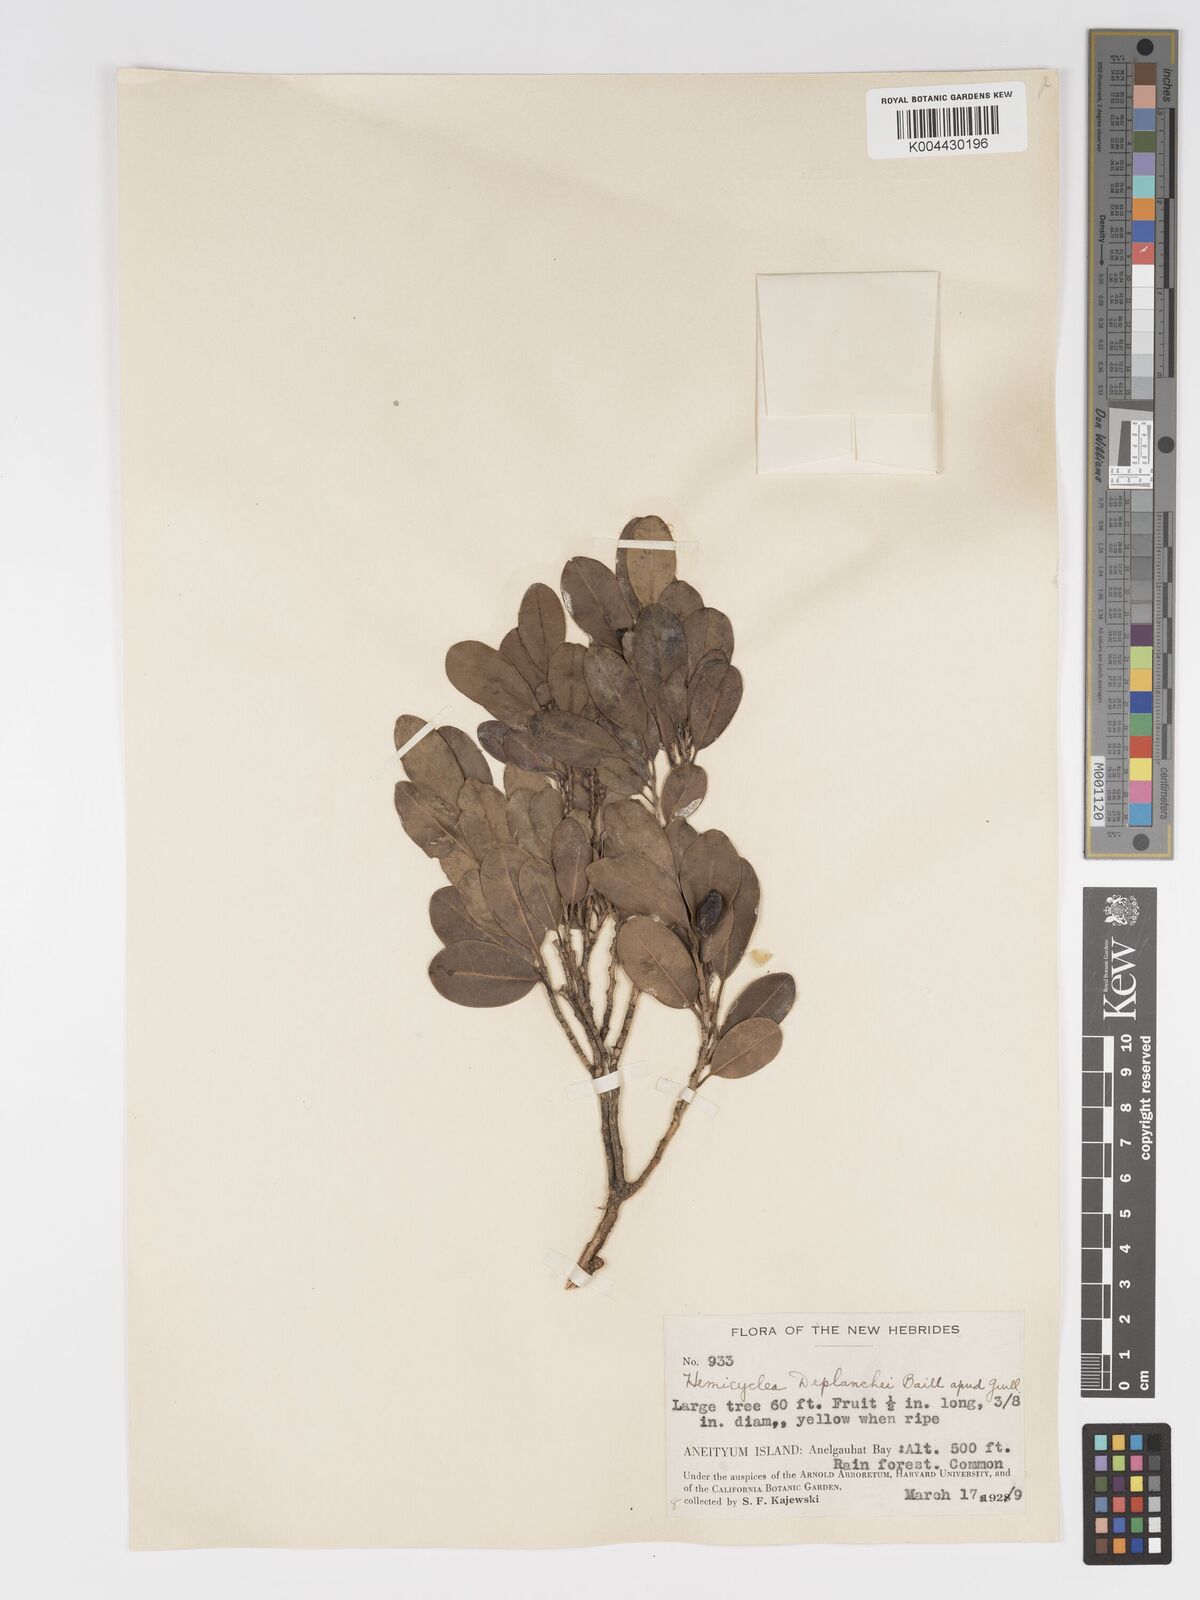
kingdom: Plantae
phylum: Tracheophyta
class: Magnoliopsida
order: Malpighiales
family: Putranjivaceae
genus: Drypetes
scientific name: Drypetes deplanchei
